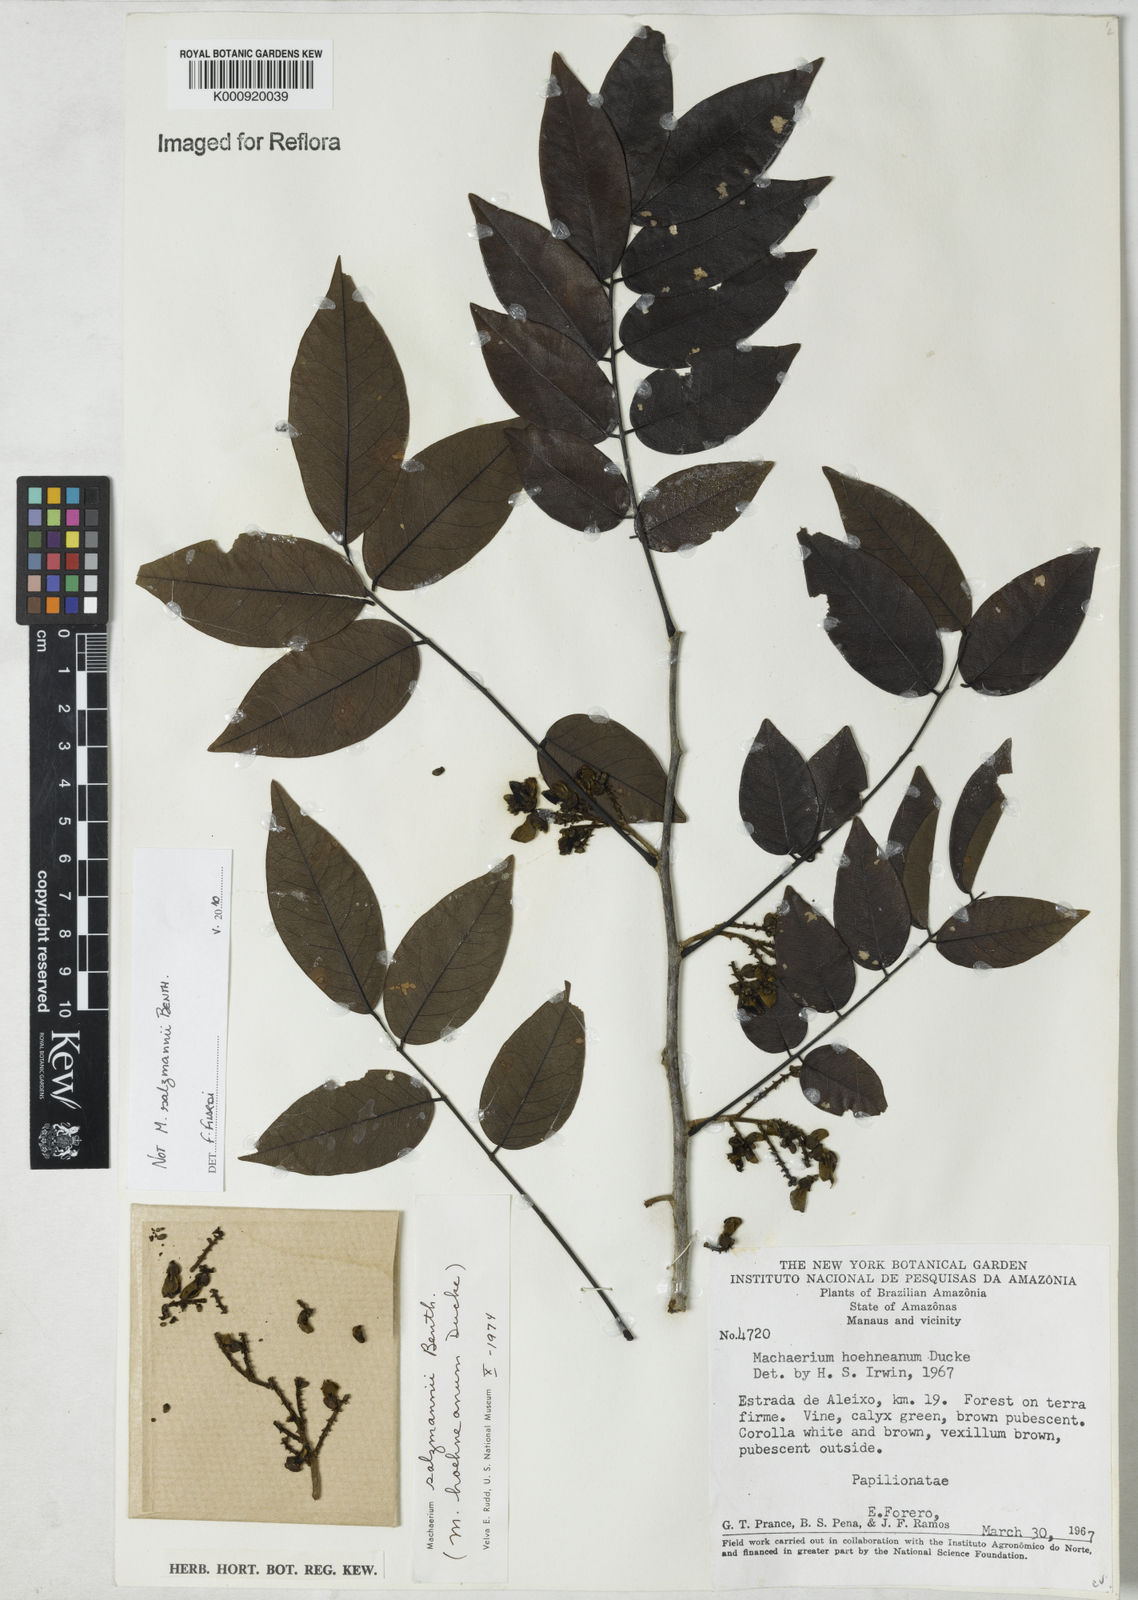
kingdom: Plantae
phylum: Tracheophyta
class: Magnoliopsida
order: Fabales
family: Fabaceae
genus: Machaerium
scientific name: Machaerium
